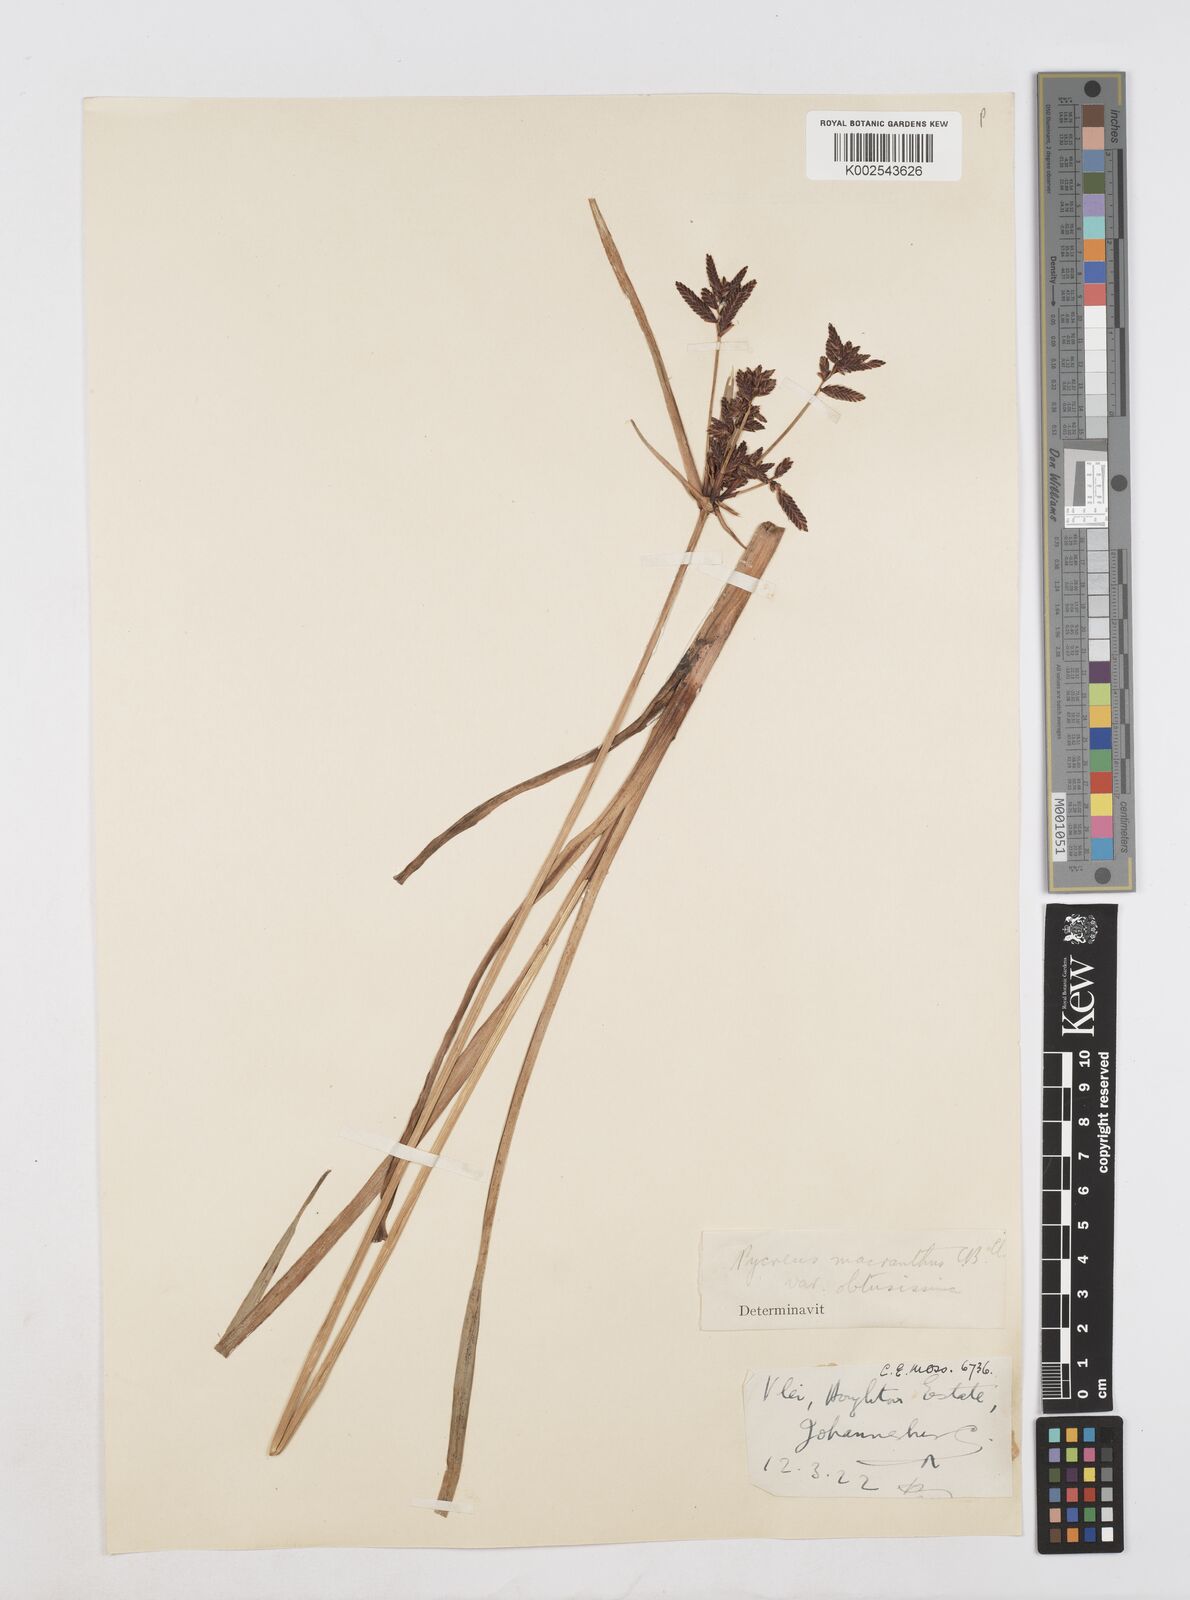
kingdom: Plantae
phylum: Tracheophyta
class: Liliopsida
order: Poales
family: Cyperaceae
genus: Cyperus
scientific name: Cyperus nitidus
